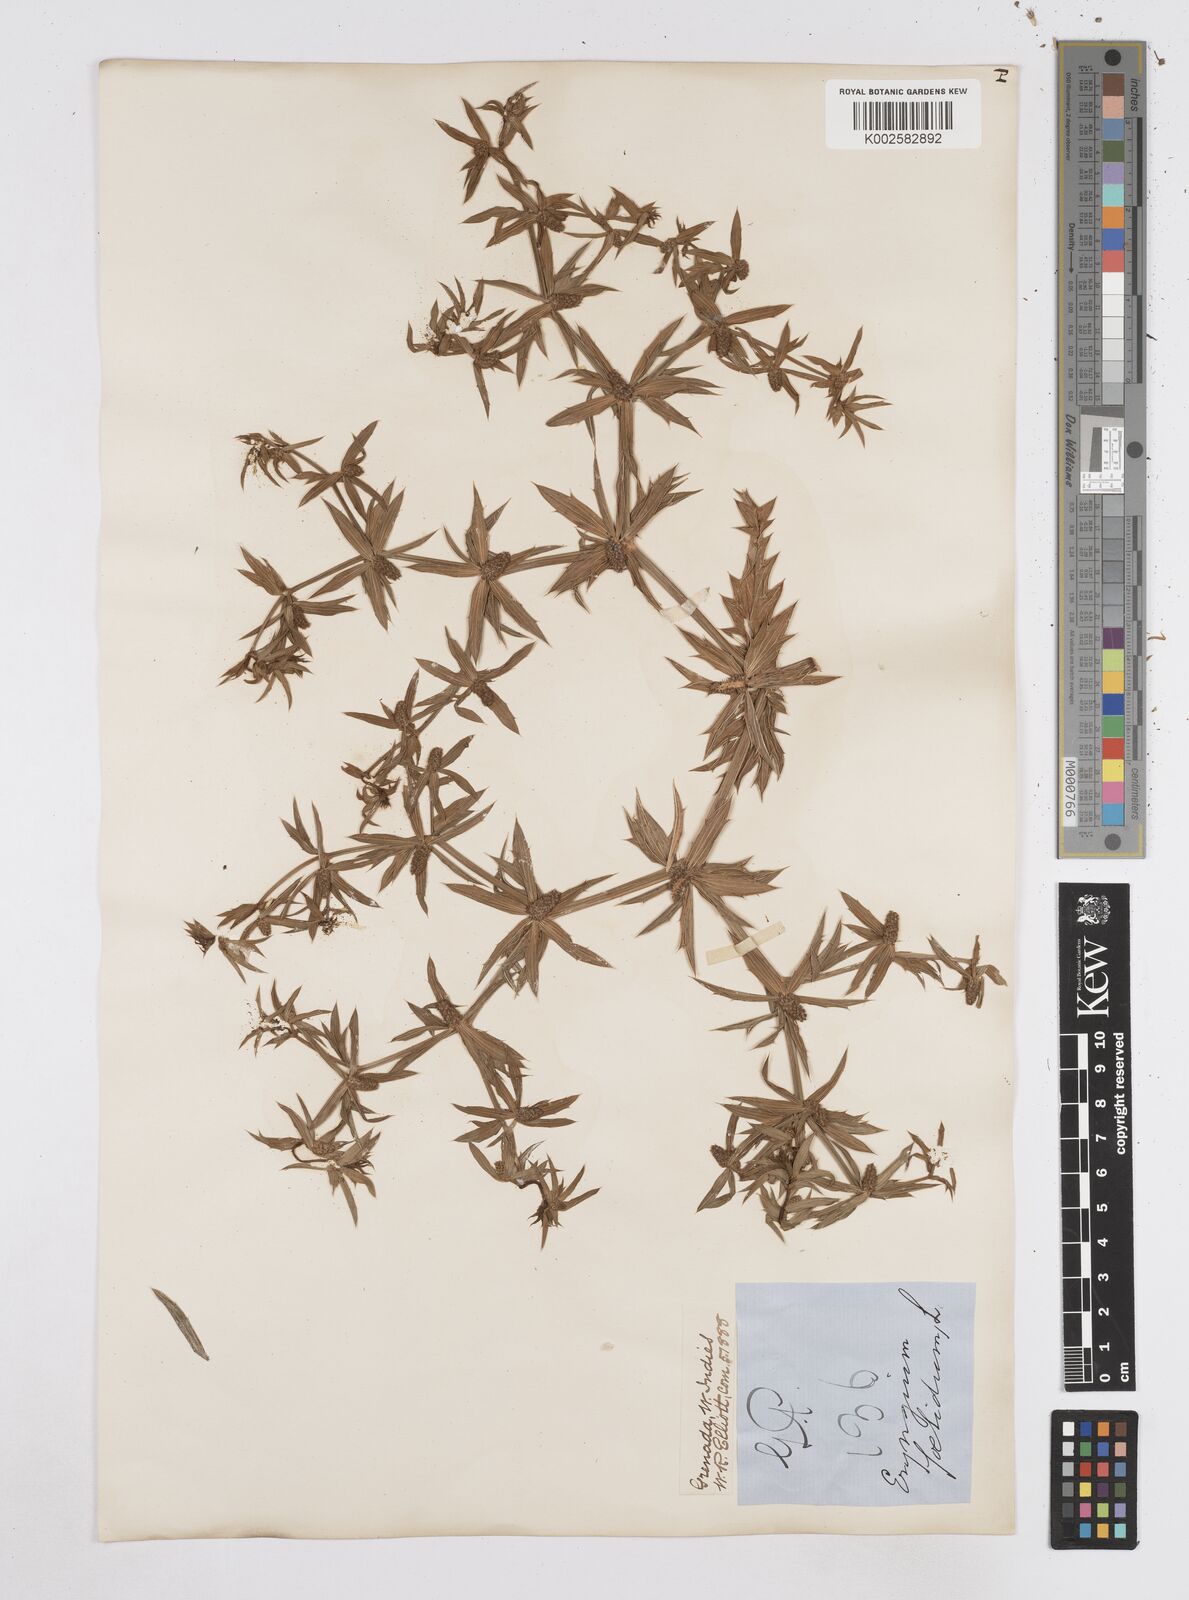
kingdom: Plantae
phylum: Tracheophyta
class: Magnoliopsida
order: Apiales
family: Apiaceae
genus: Eryngium
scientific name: Eryngium foetidum
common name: Fitweed
